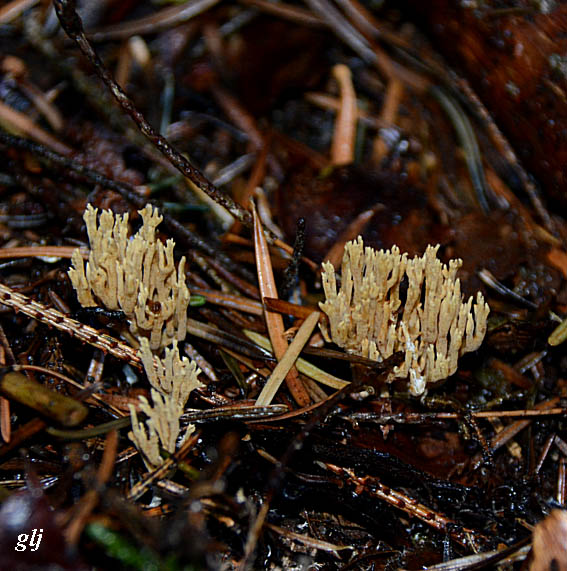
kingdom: Fungi
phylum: Basidiomycota
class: Agaricomycetes
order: Gomphales
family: Gomphaceae
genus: Phaeoclavulina
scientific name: Phaeoclavulina eumorpha
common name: gran-koralsvamp
